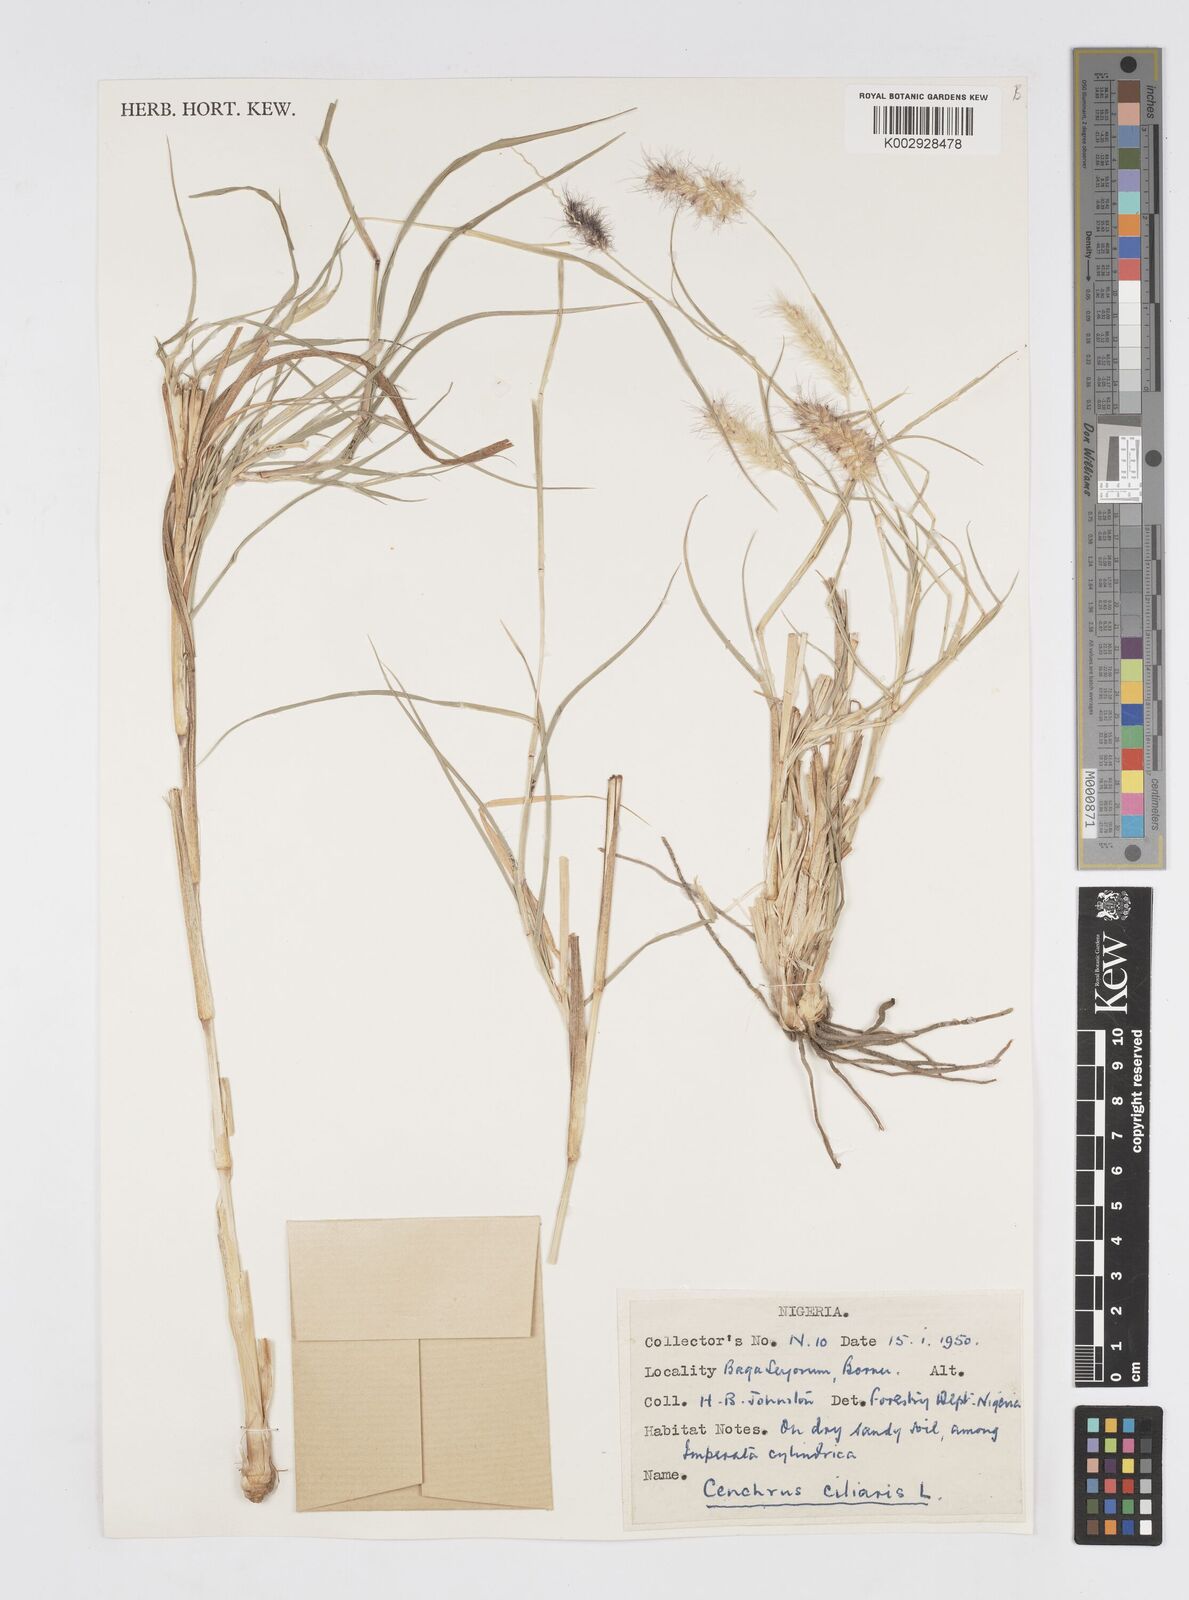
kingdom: Plantae
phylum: Tracheophyta
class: Liliopsida
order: Poales
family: Poaceae
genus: Cenchrus
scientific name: Cenchrus ciliaris
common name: Buffelgrass
